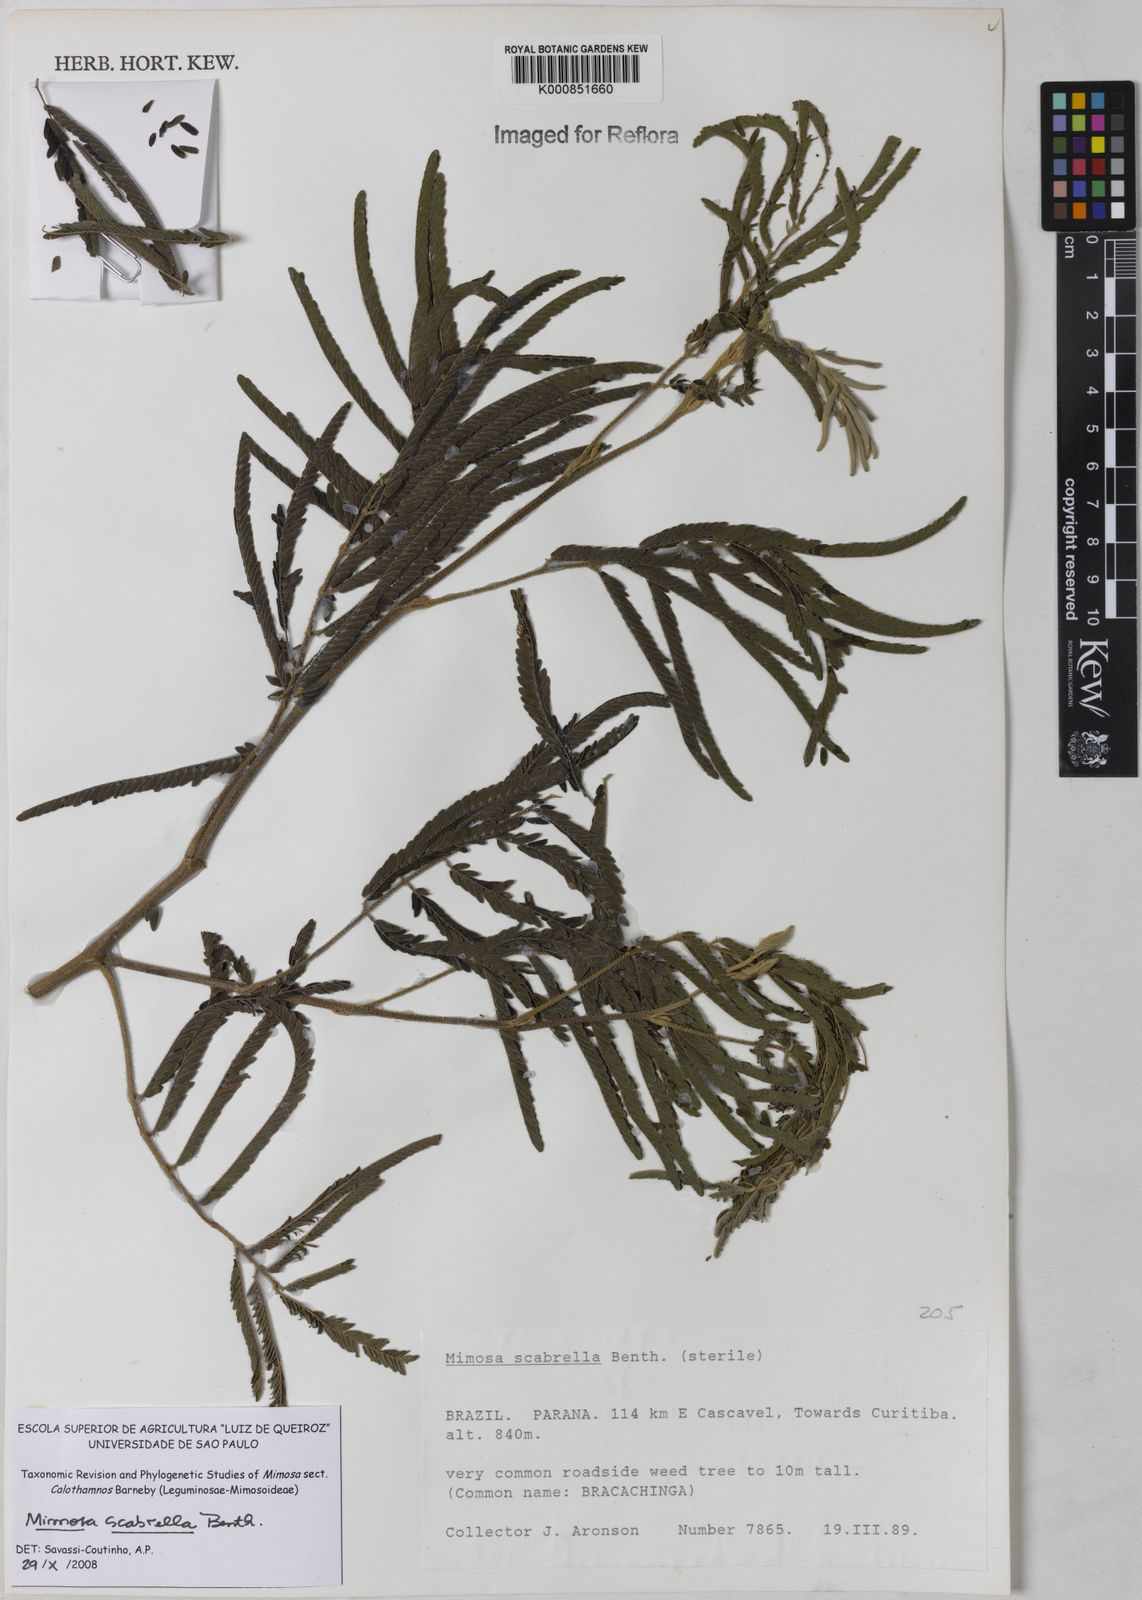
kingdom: Plantae
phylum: Tracheophyta
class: Magnoliopsida
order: Fabales
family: Fabaceae
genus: Mimosa
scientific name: Mimosa scabrella
